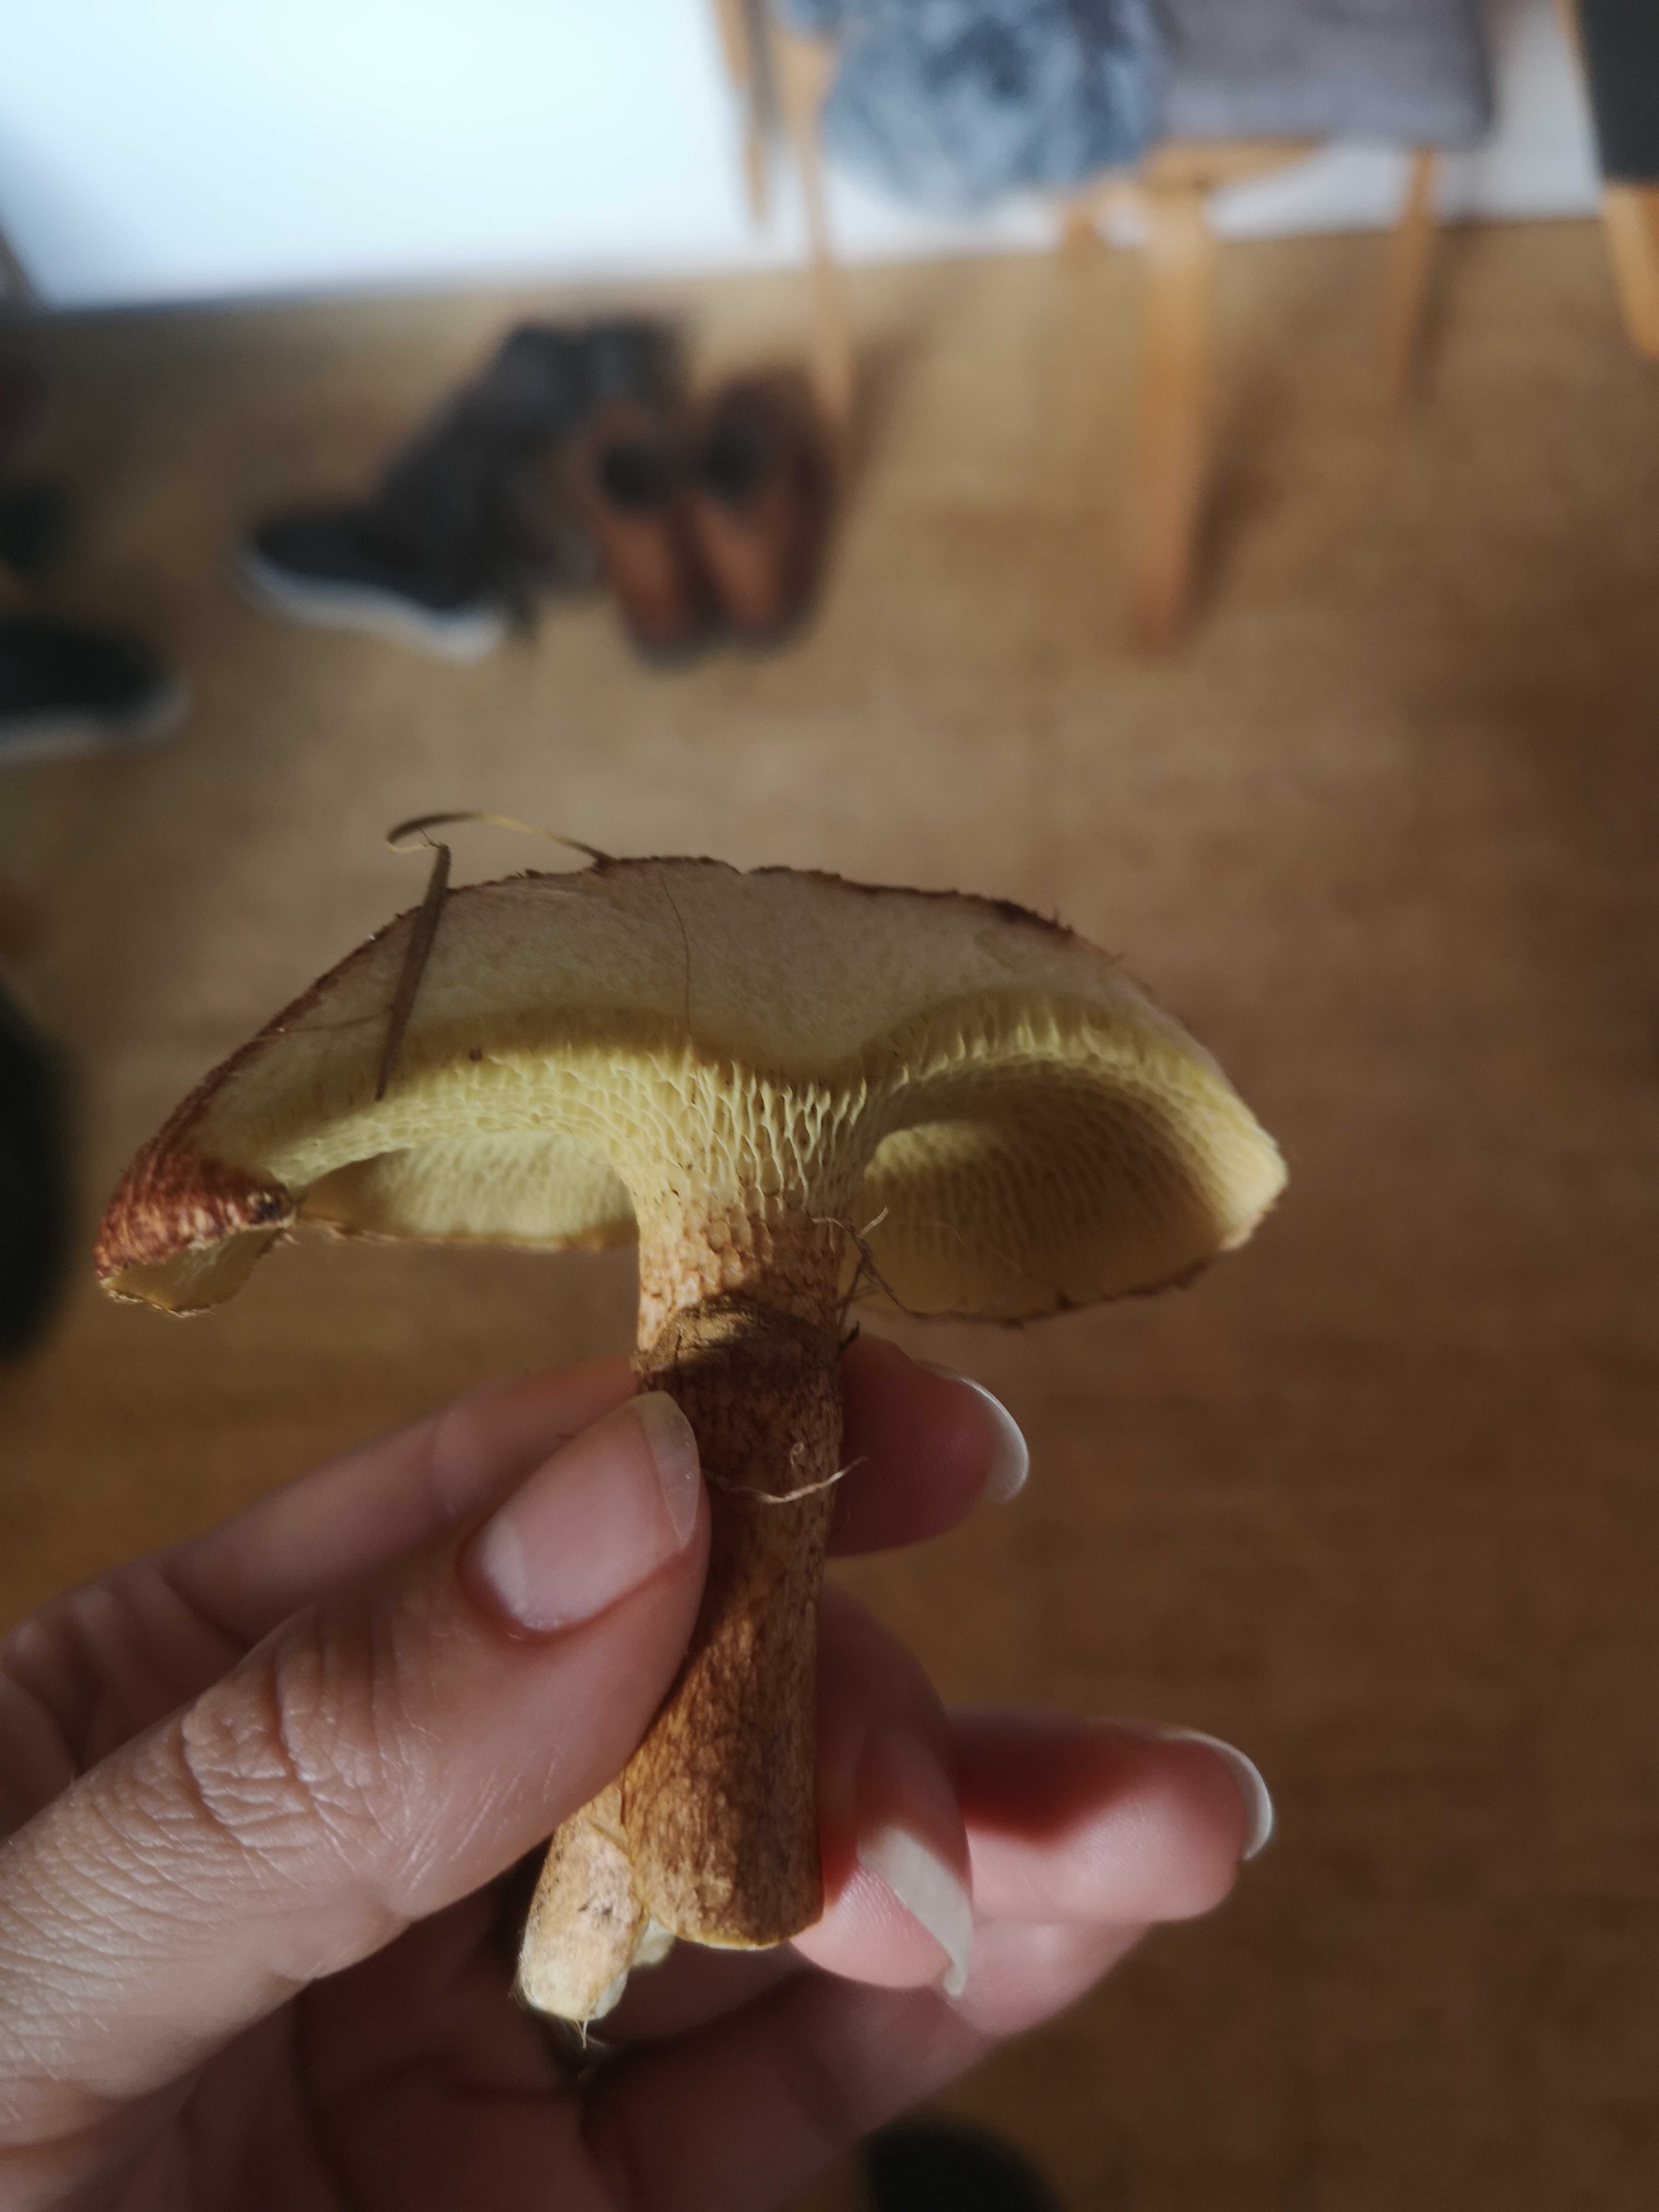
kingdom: Fungi
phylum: Basidiomycota
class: Agaricomycetes
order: Boletales
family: Suillaceae
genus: Suillus
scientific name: Suillus cavipes
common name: hulstokket slimrørhat
